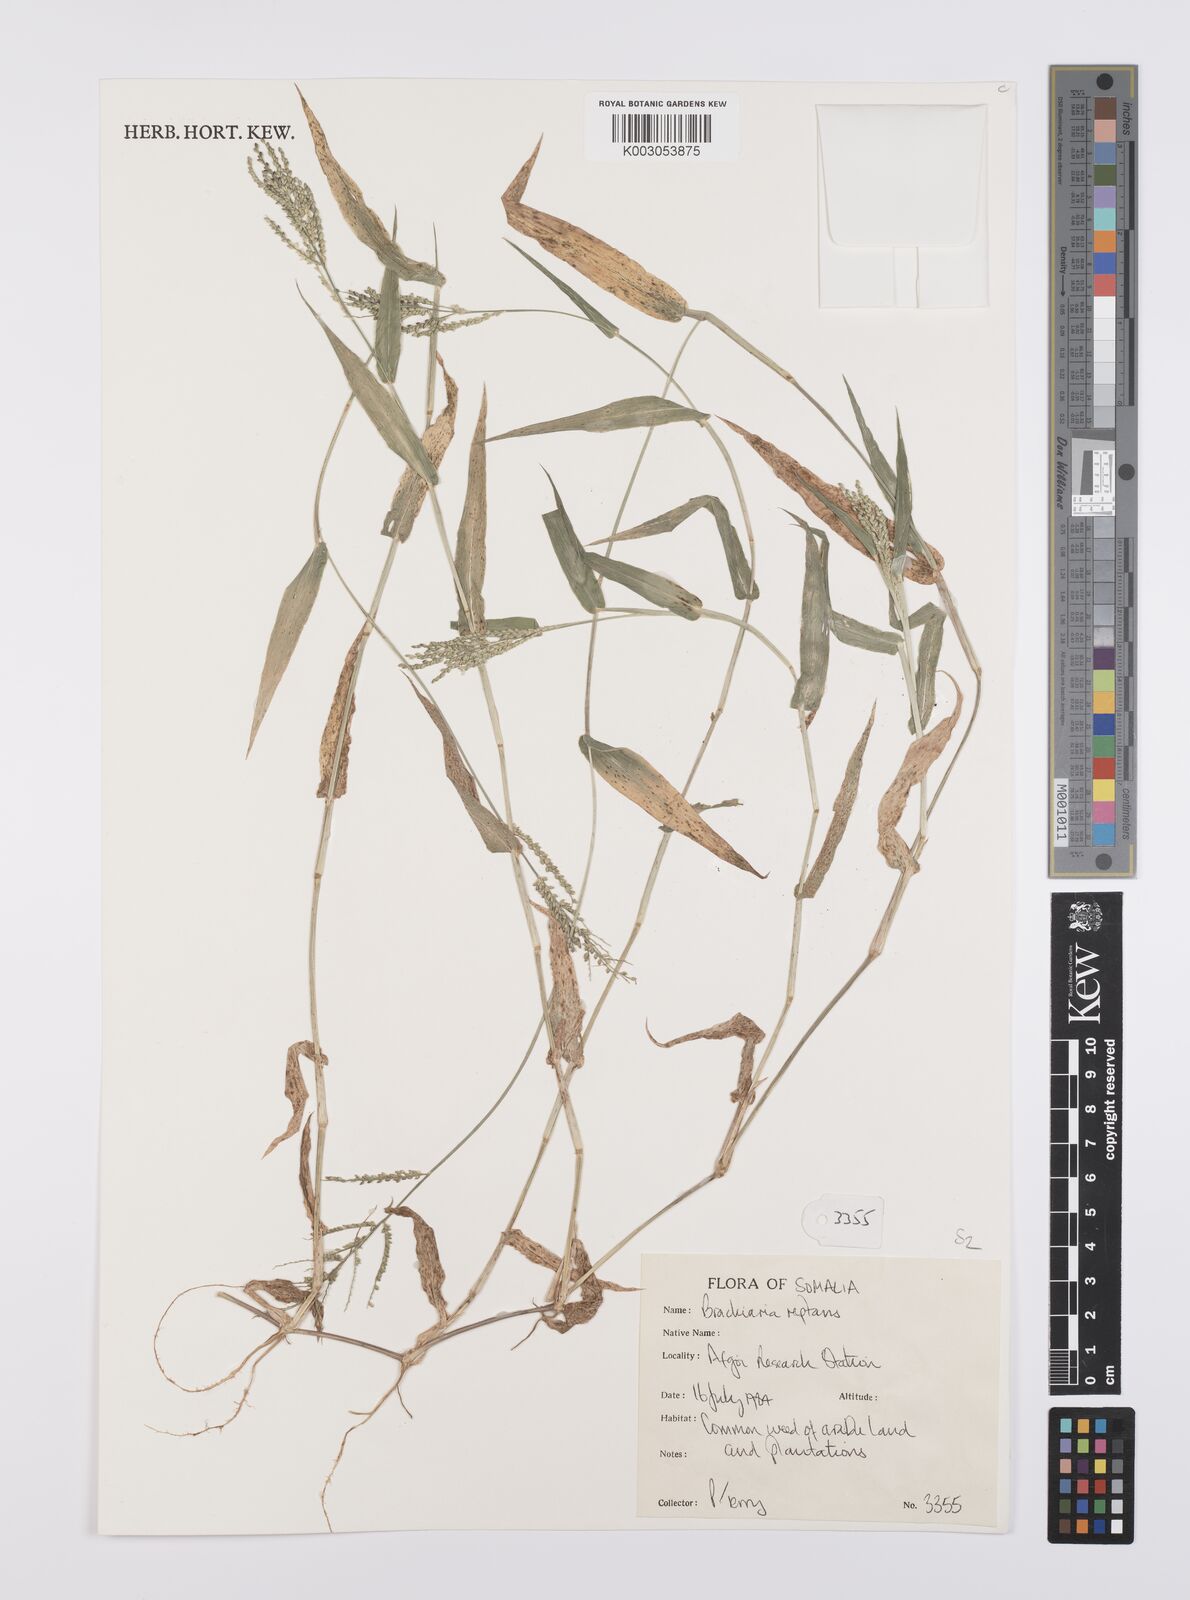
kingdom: Plantae
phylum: Tracheophyta
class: Liliopsida
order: Poales
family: Poaceae
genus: Urochloa
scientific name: Urochloa reptans
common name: Sprawling signalgrass
